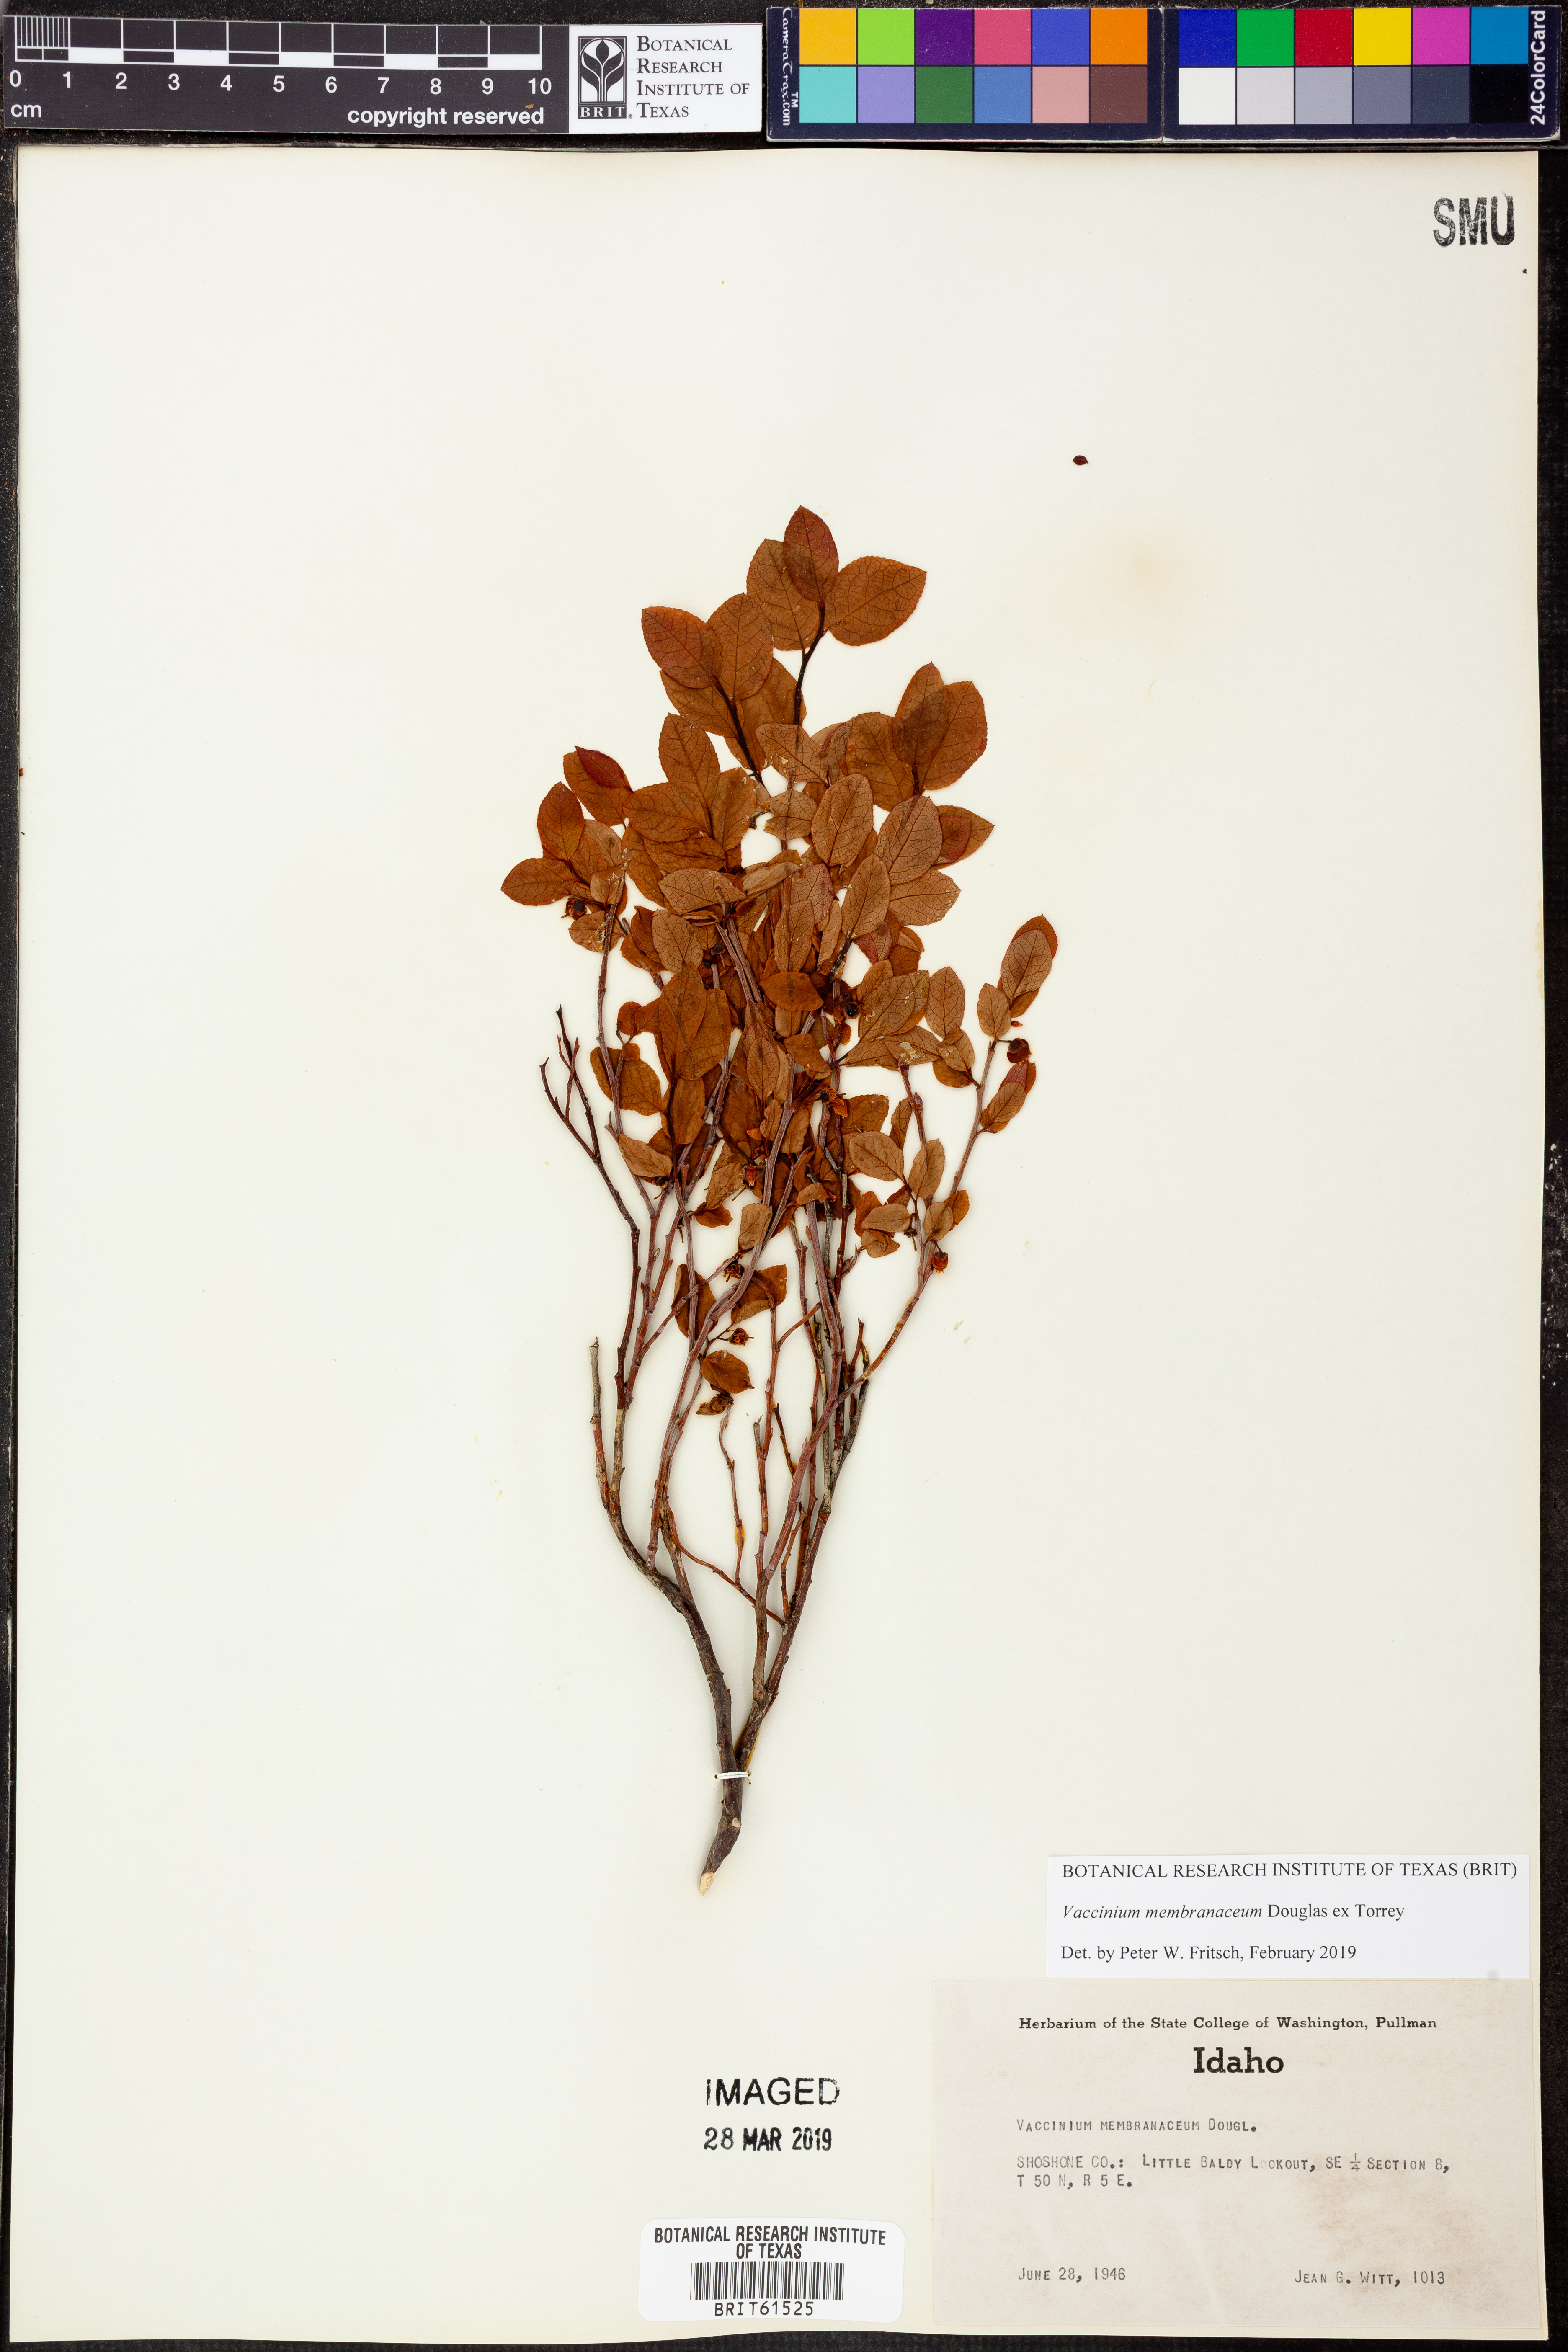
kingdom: Plantae
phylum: Tracheophyta
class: Magnoliopsida
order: Ericales
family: Ericaceae
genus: Vaccinium
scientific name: Vaccinium deliciosum
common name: Cascade bilberry
